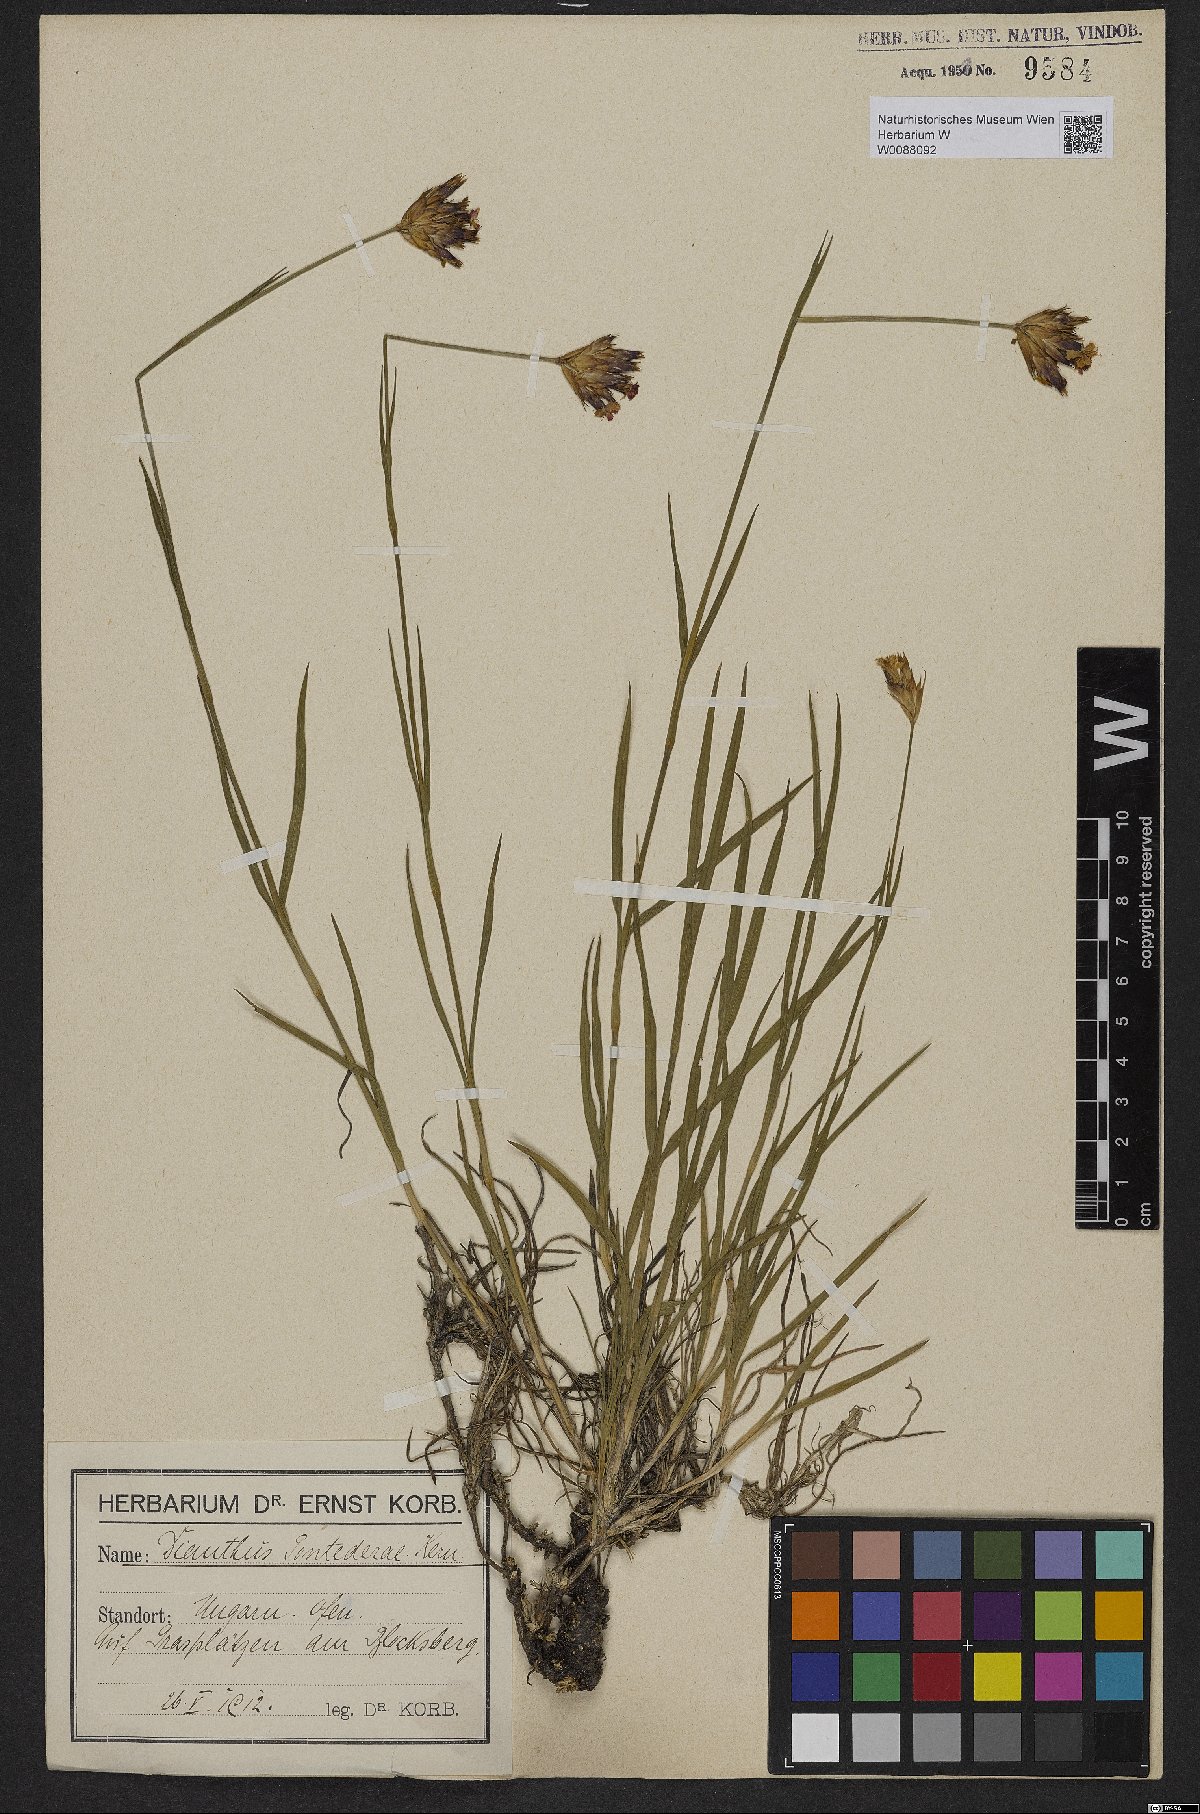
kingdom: Plantae
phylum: Tracheophyta
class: Magnoliopsida
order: Caryophyllales
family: Caryophyllaceae
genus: Dianthus
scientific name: Dianthus pontederae
